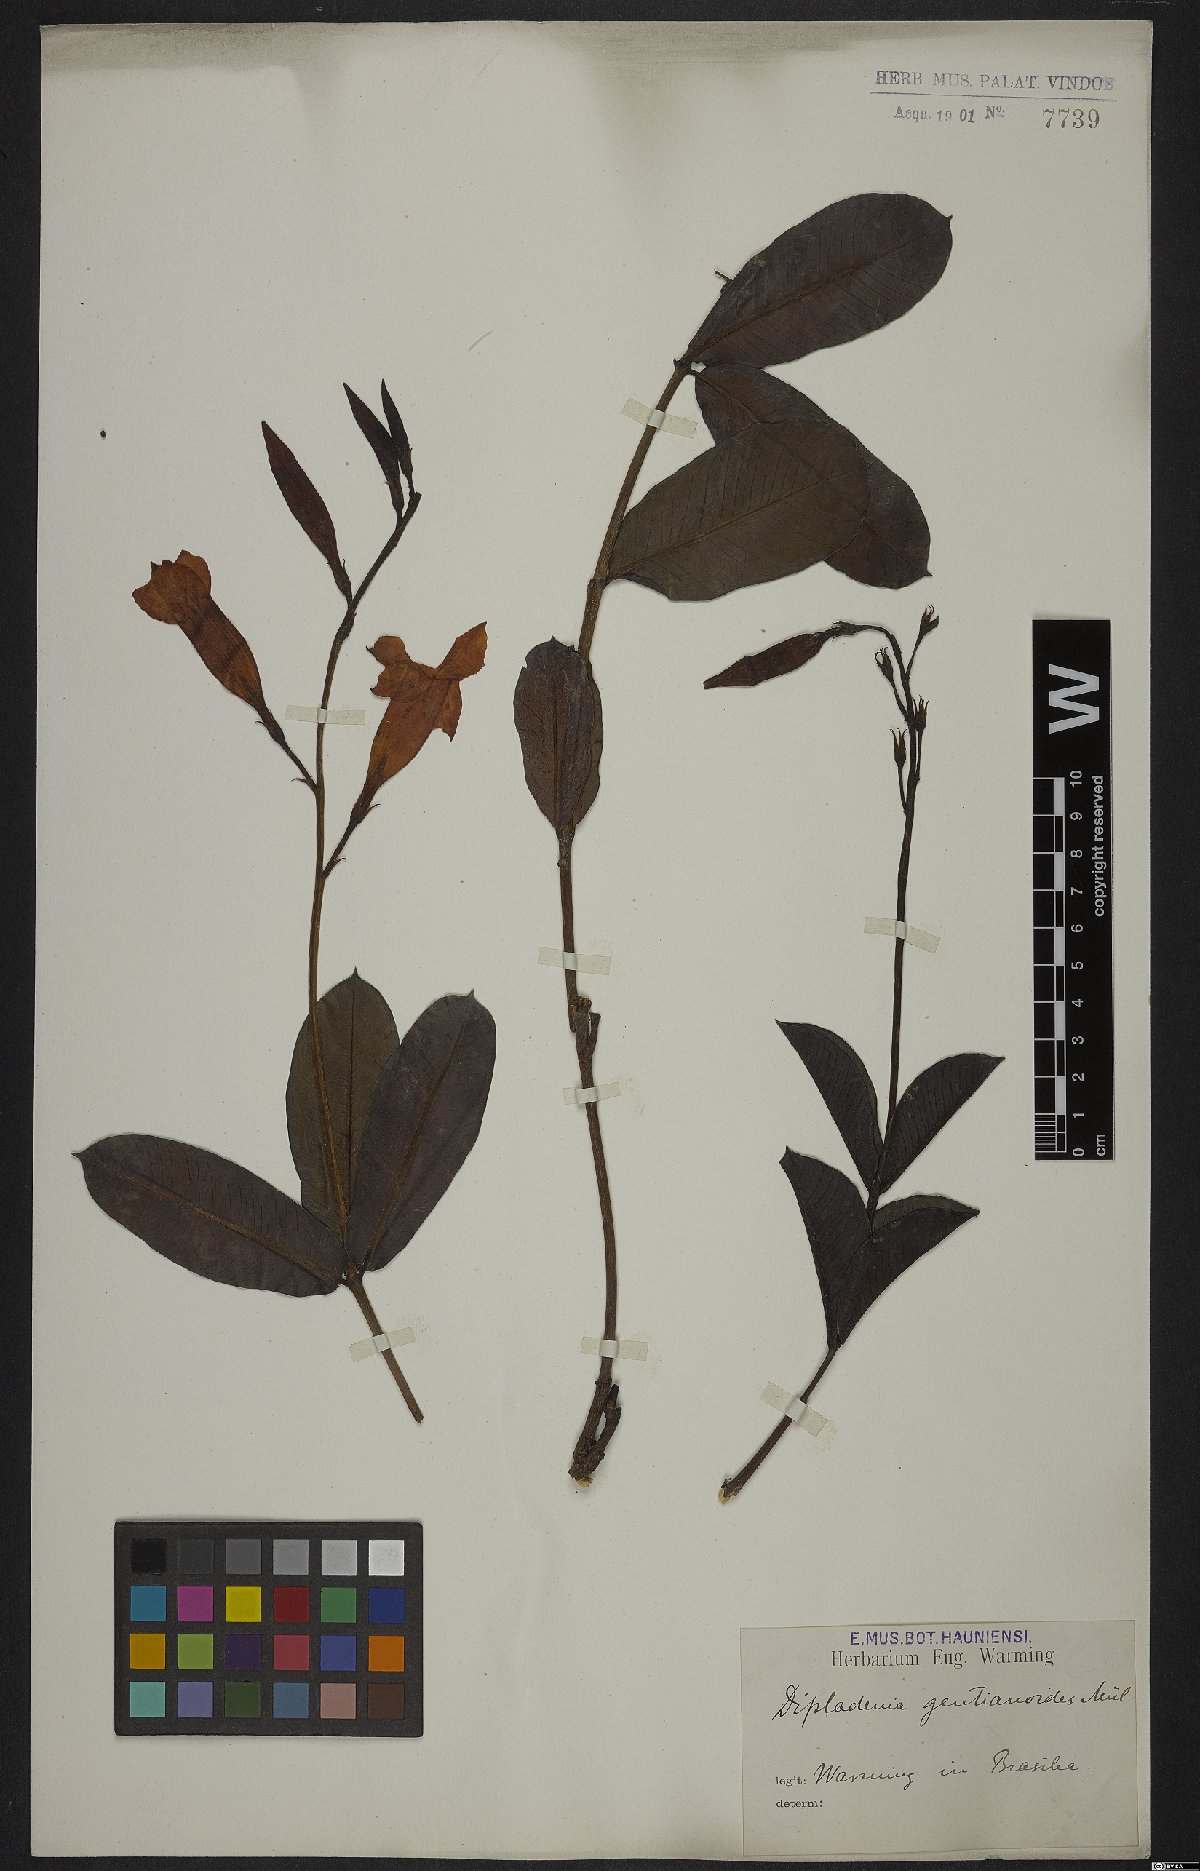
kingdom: Plantae
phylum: Tracheophyta
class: Magnoliopsida
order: Gentianales
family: Apocynaceae
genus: Mandevilla
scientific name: Mandevilla pohliana
